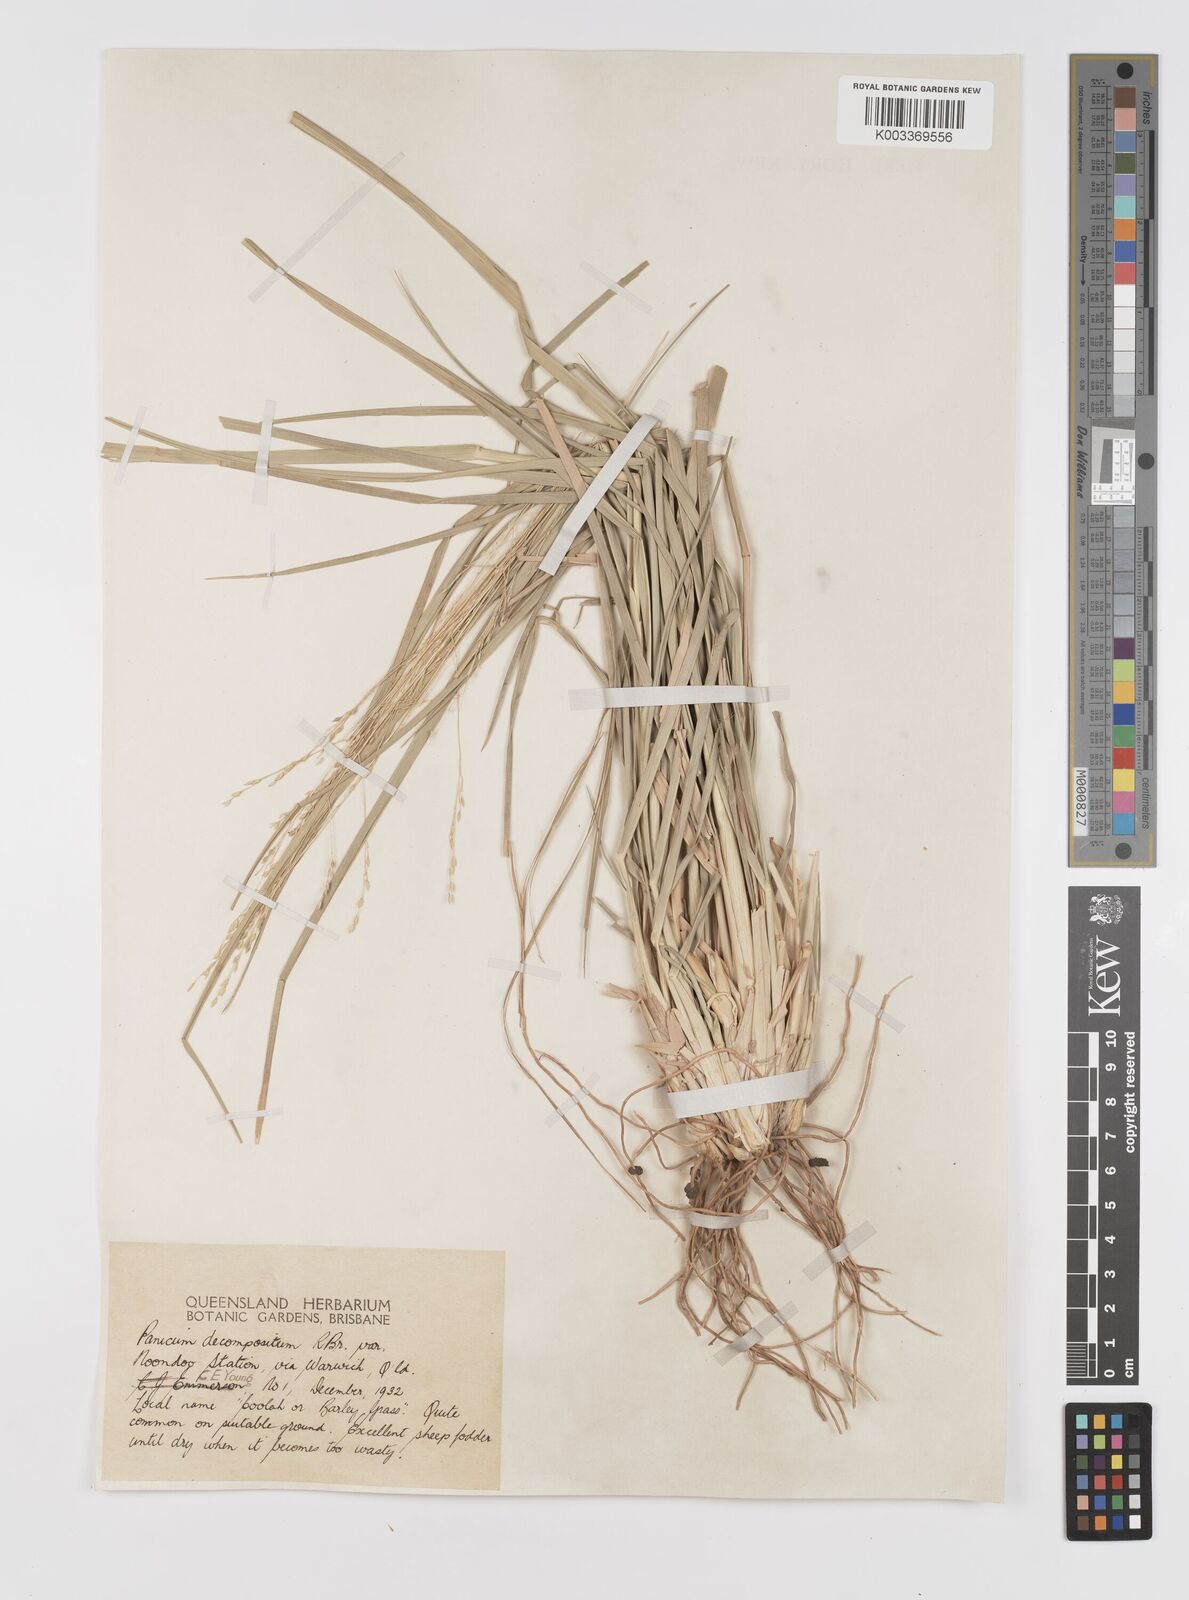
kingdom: Plantae
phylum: Tracheophyta
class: Liliopsida
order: Poales
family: Poaceae
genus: Panicum
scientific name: Panicum decompositum
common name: Australian millet
